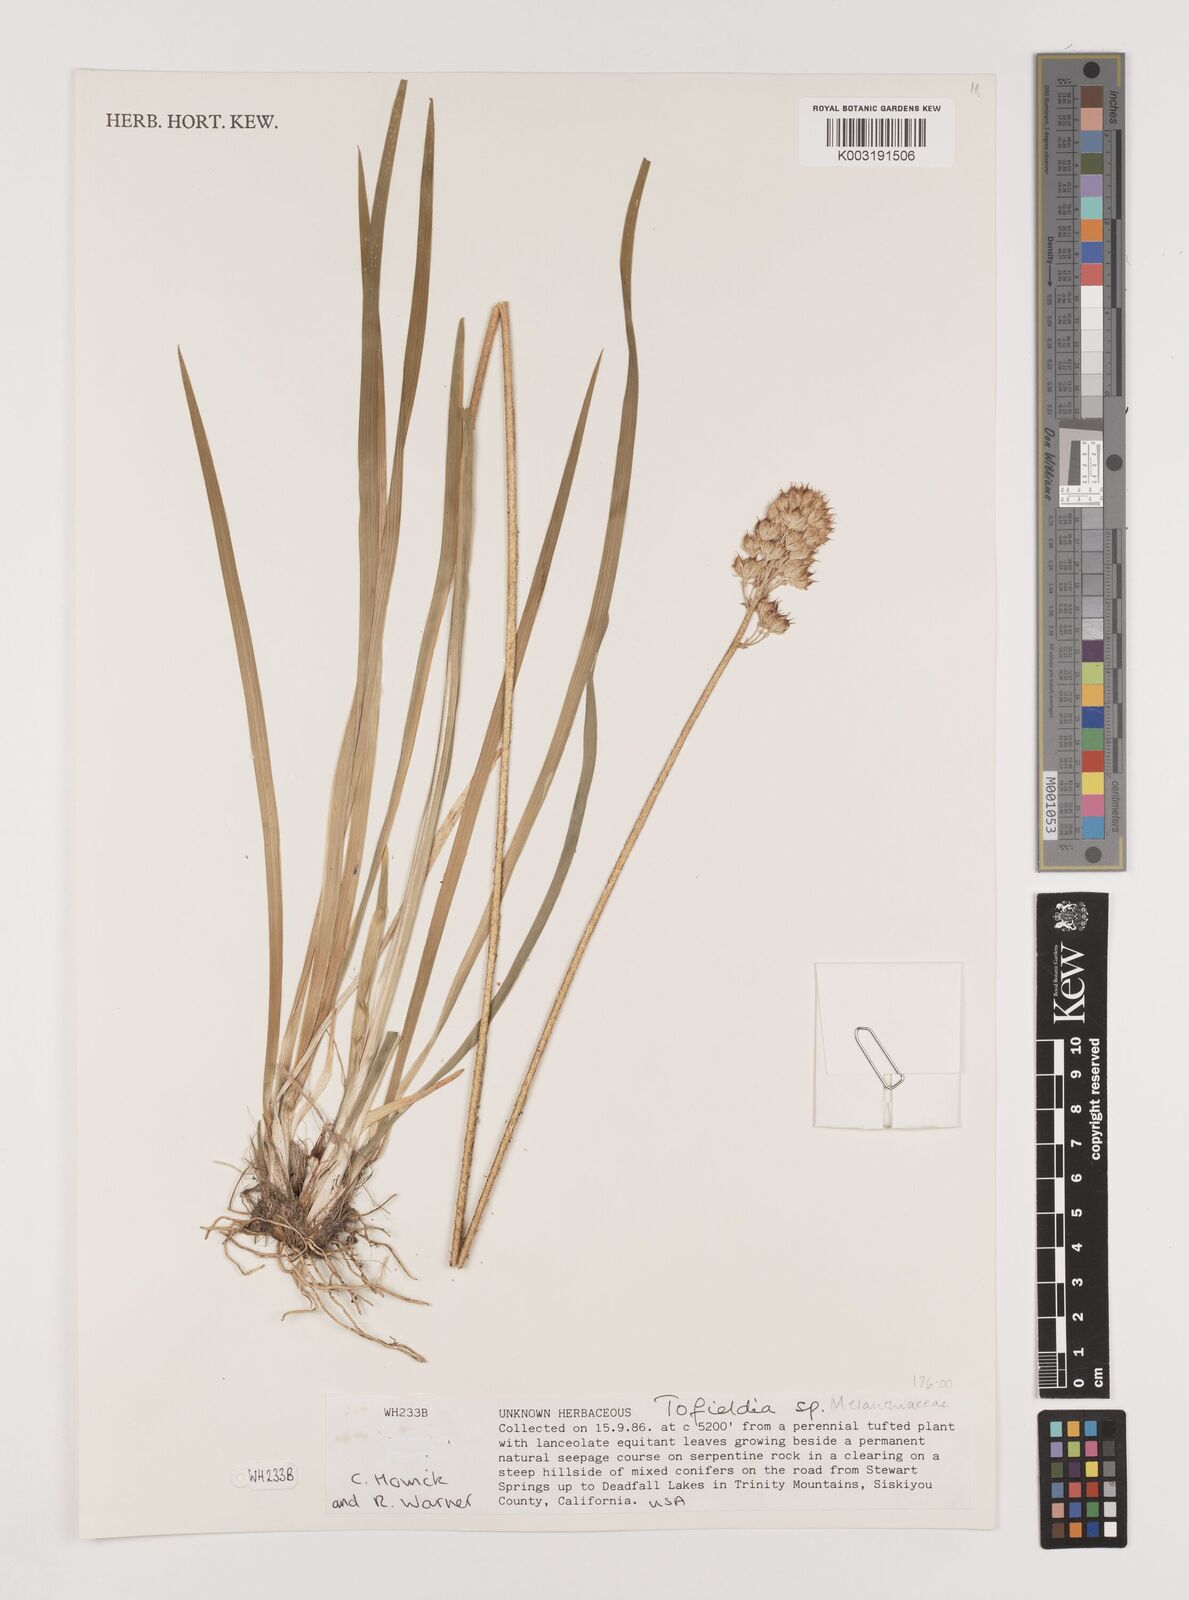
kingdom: Plantae
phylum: Tracheophyta
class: Liliopsida
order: Alismatales
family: Tofieldiaceae
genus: Tofieldia
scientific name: Tofieldia
